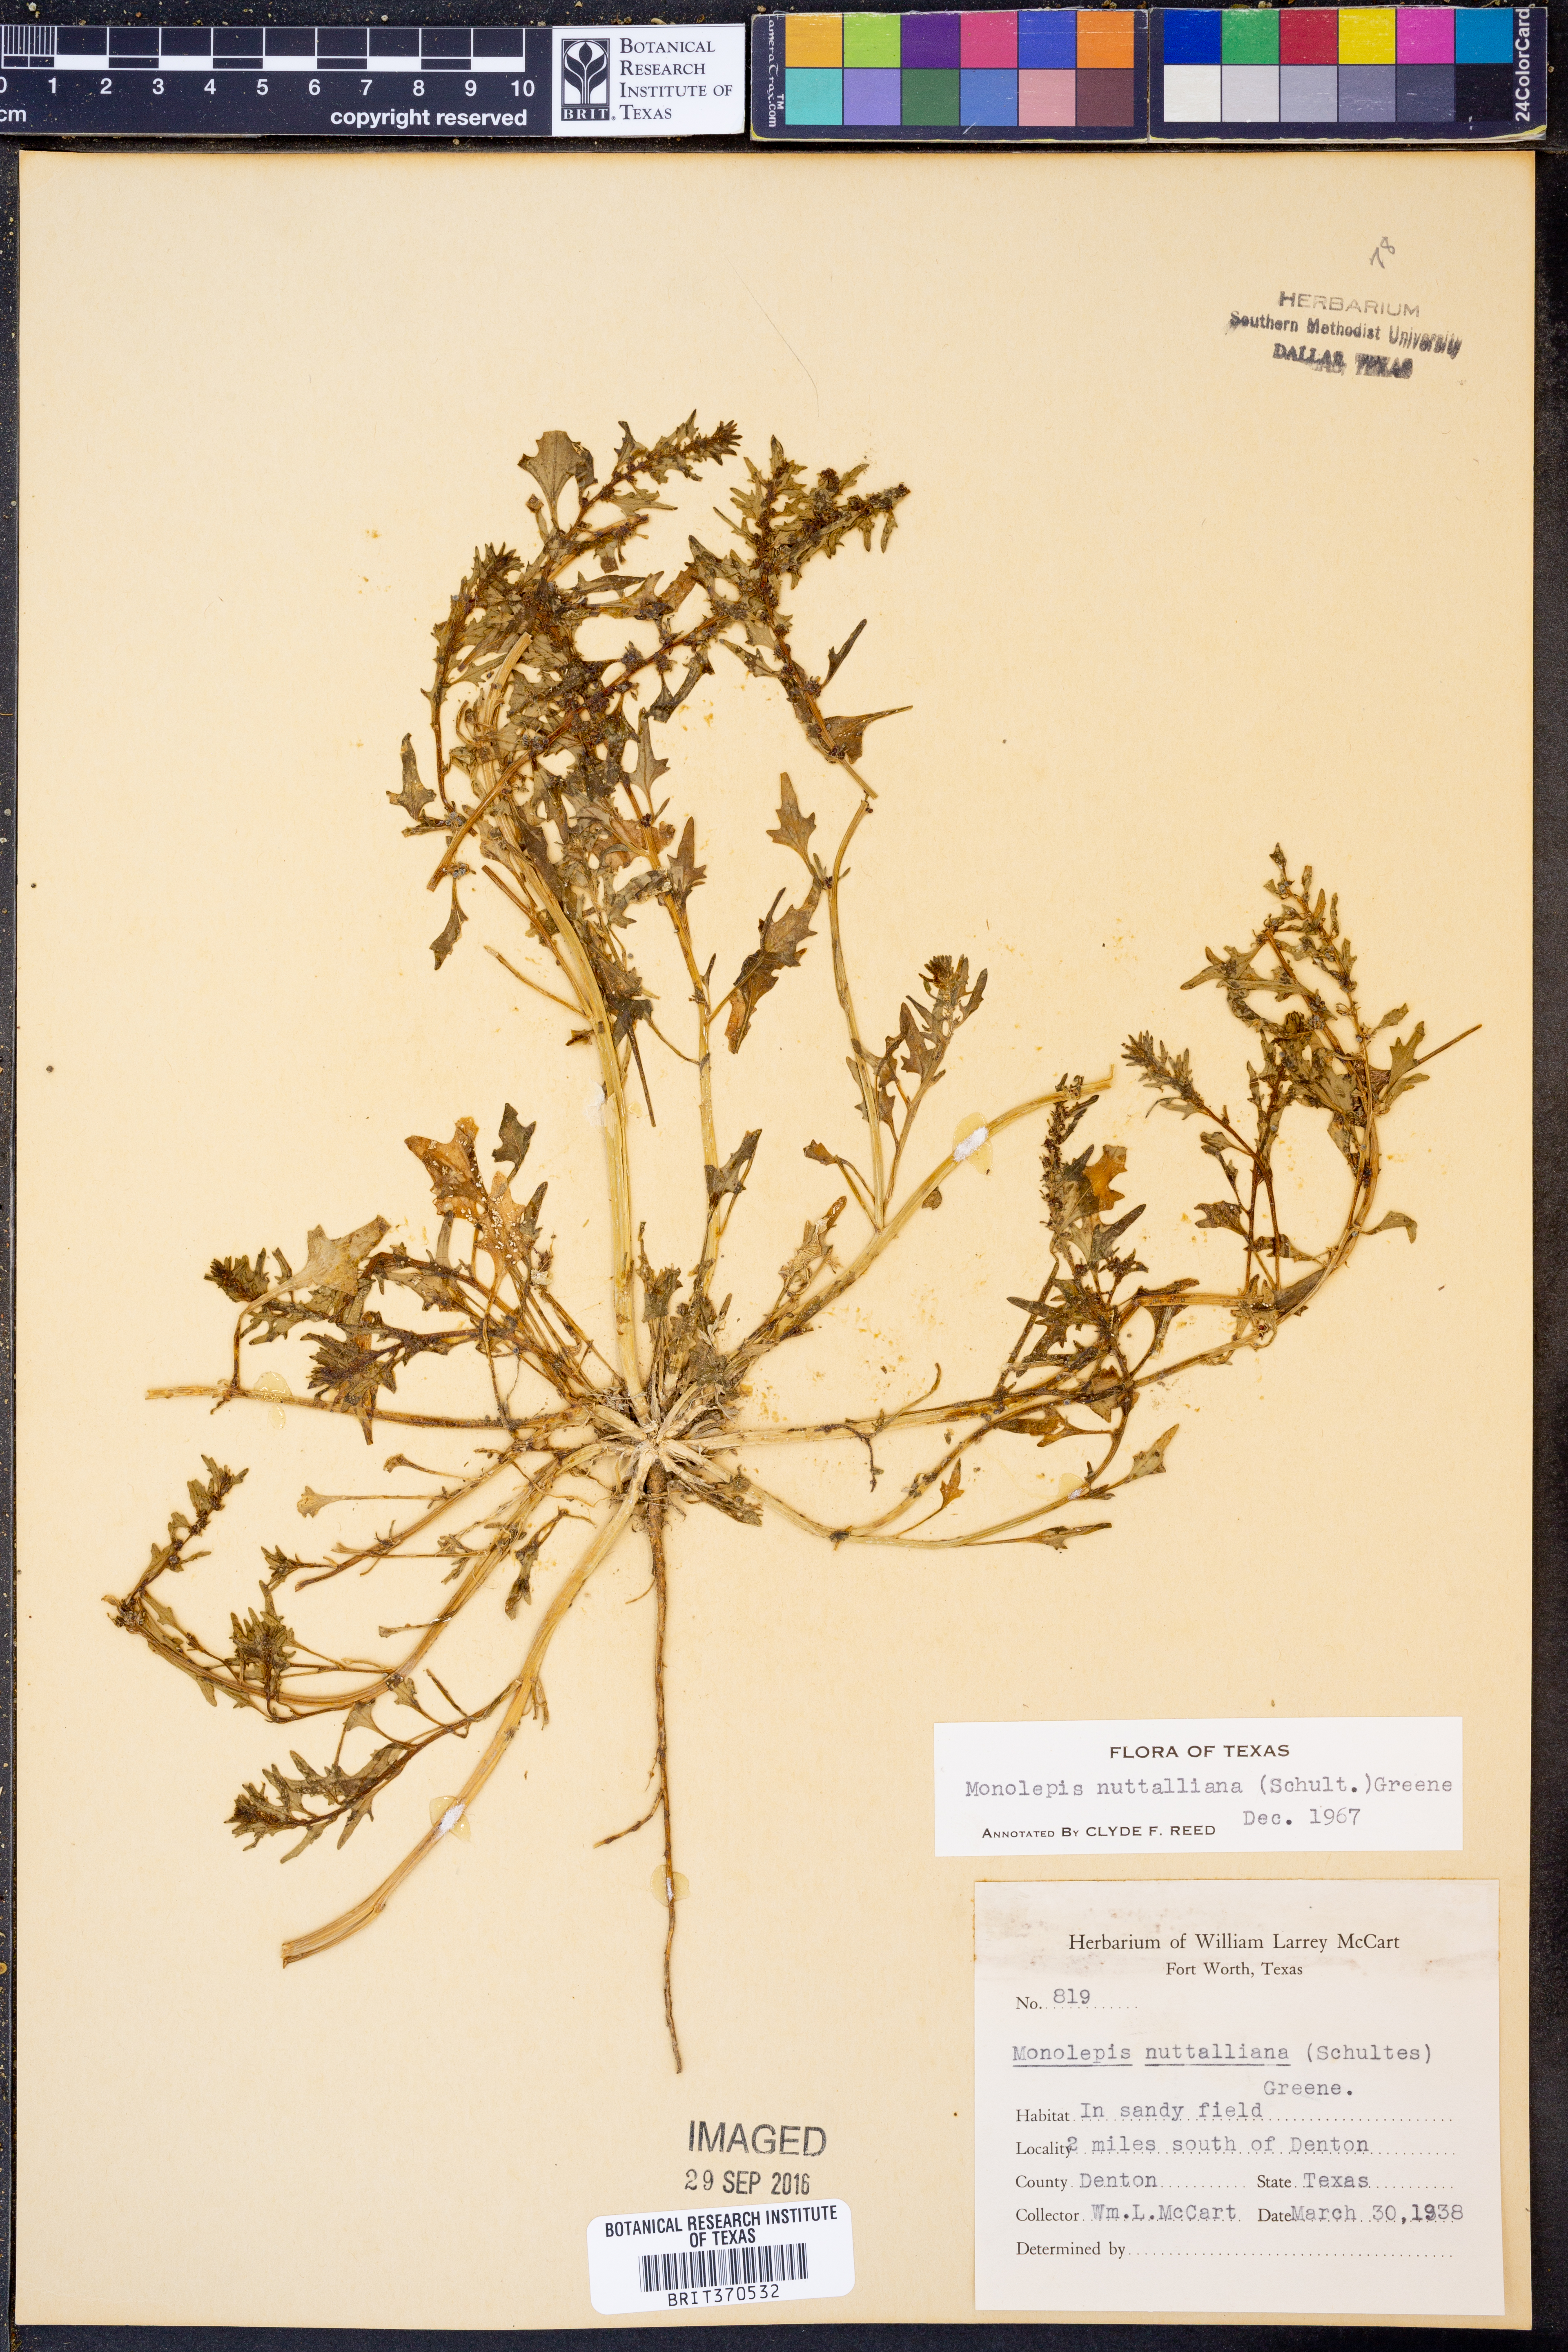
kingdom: Plantae
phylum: Tracheophyta
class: Magnoliopsida
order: Caryophyllales
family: Amaranthaceae
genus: Blitum
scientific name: Blitum nuttallianum
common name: Poverty-weed
